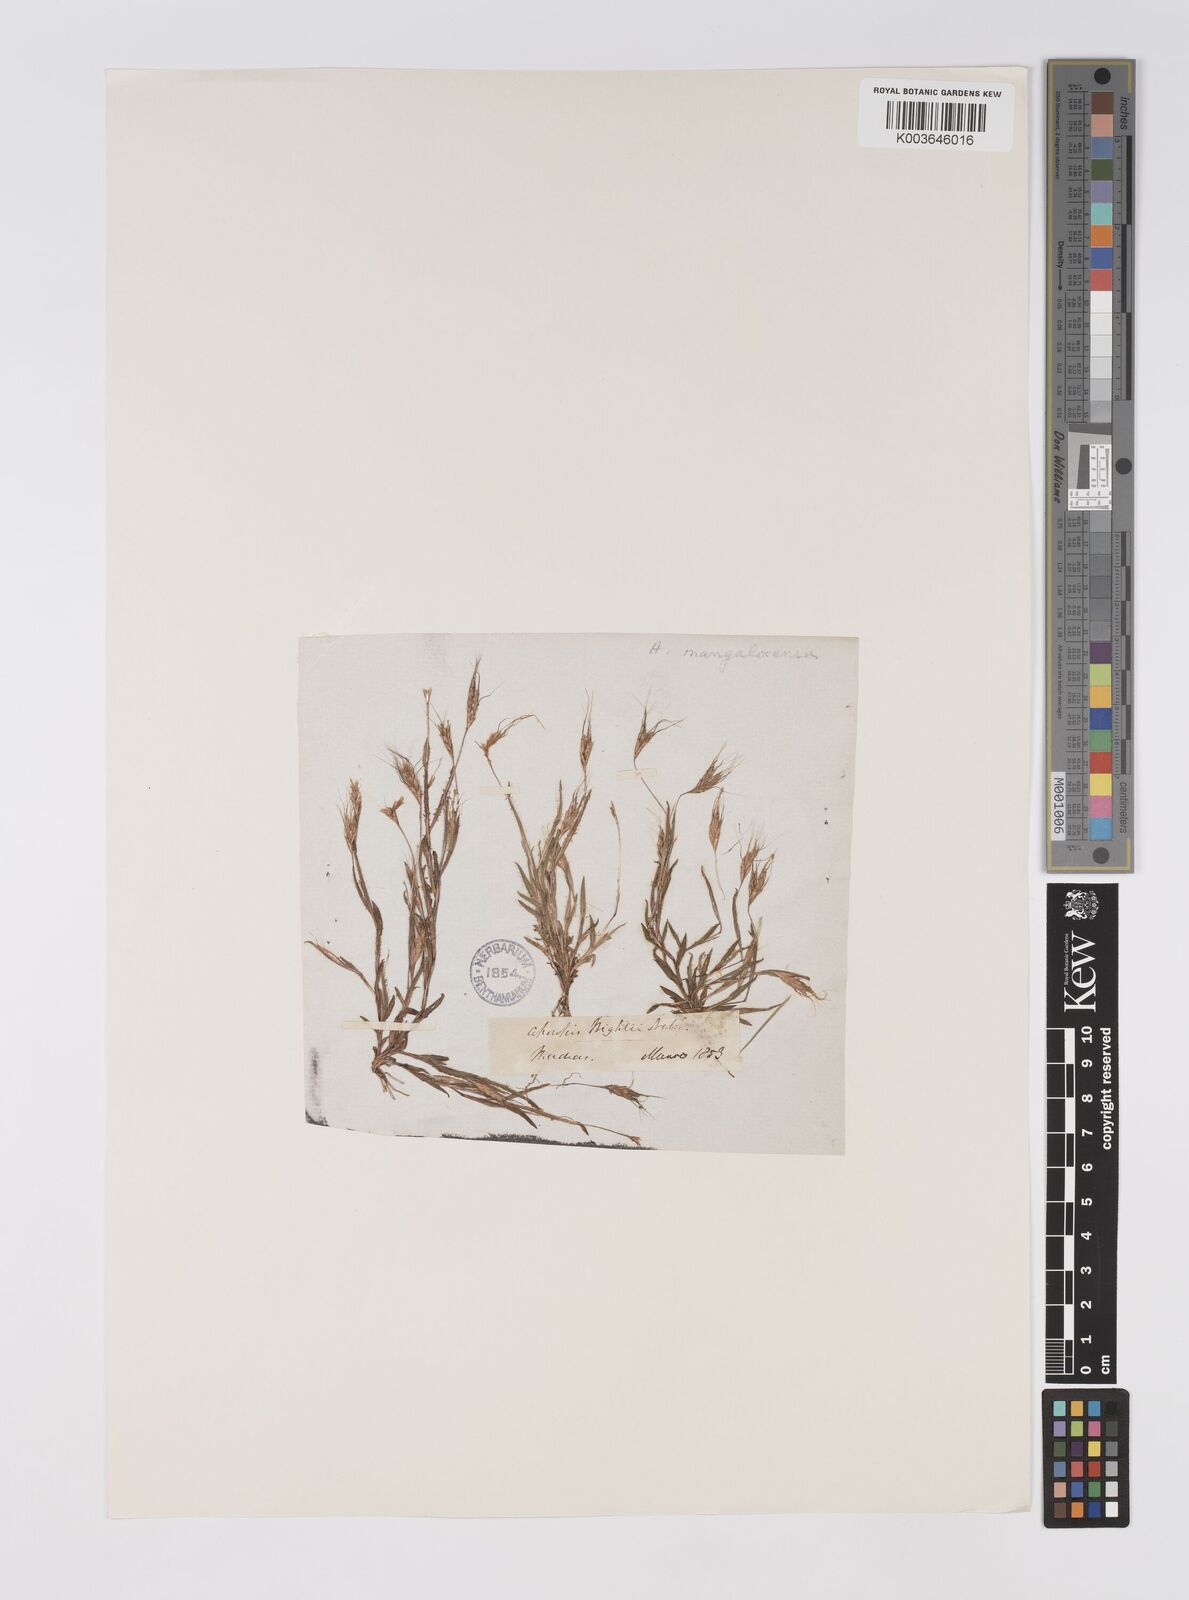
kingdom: Plantae
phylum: Tracheophyta
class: Liliopsida
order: Poales
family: Poaceae
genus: Apocopis
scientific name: Apocopis mangalorensis
